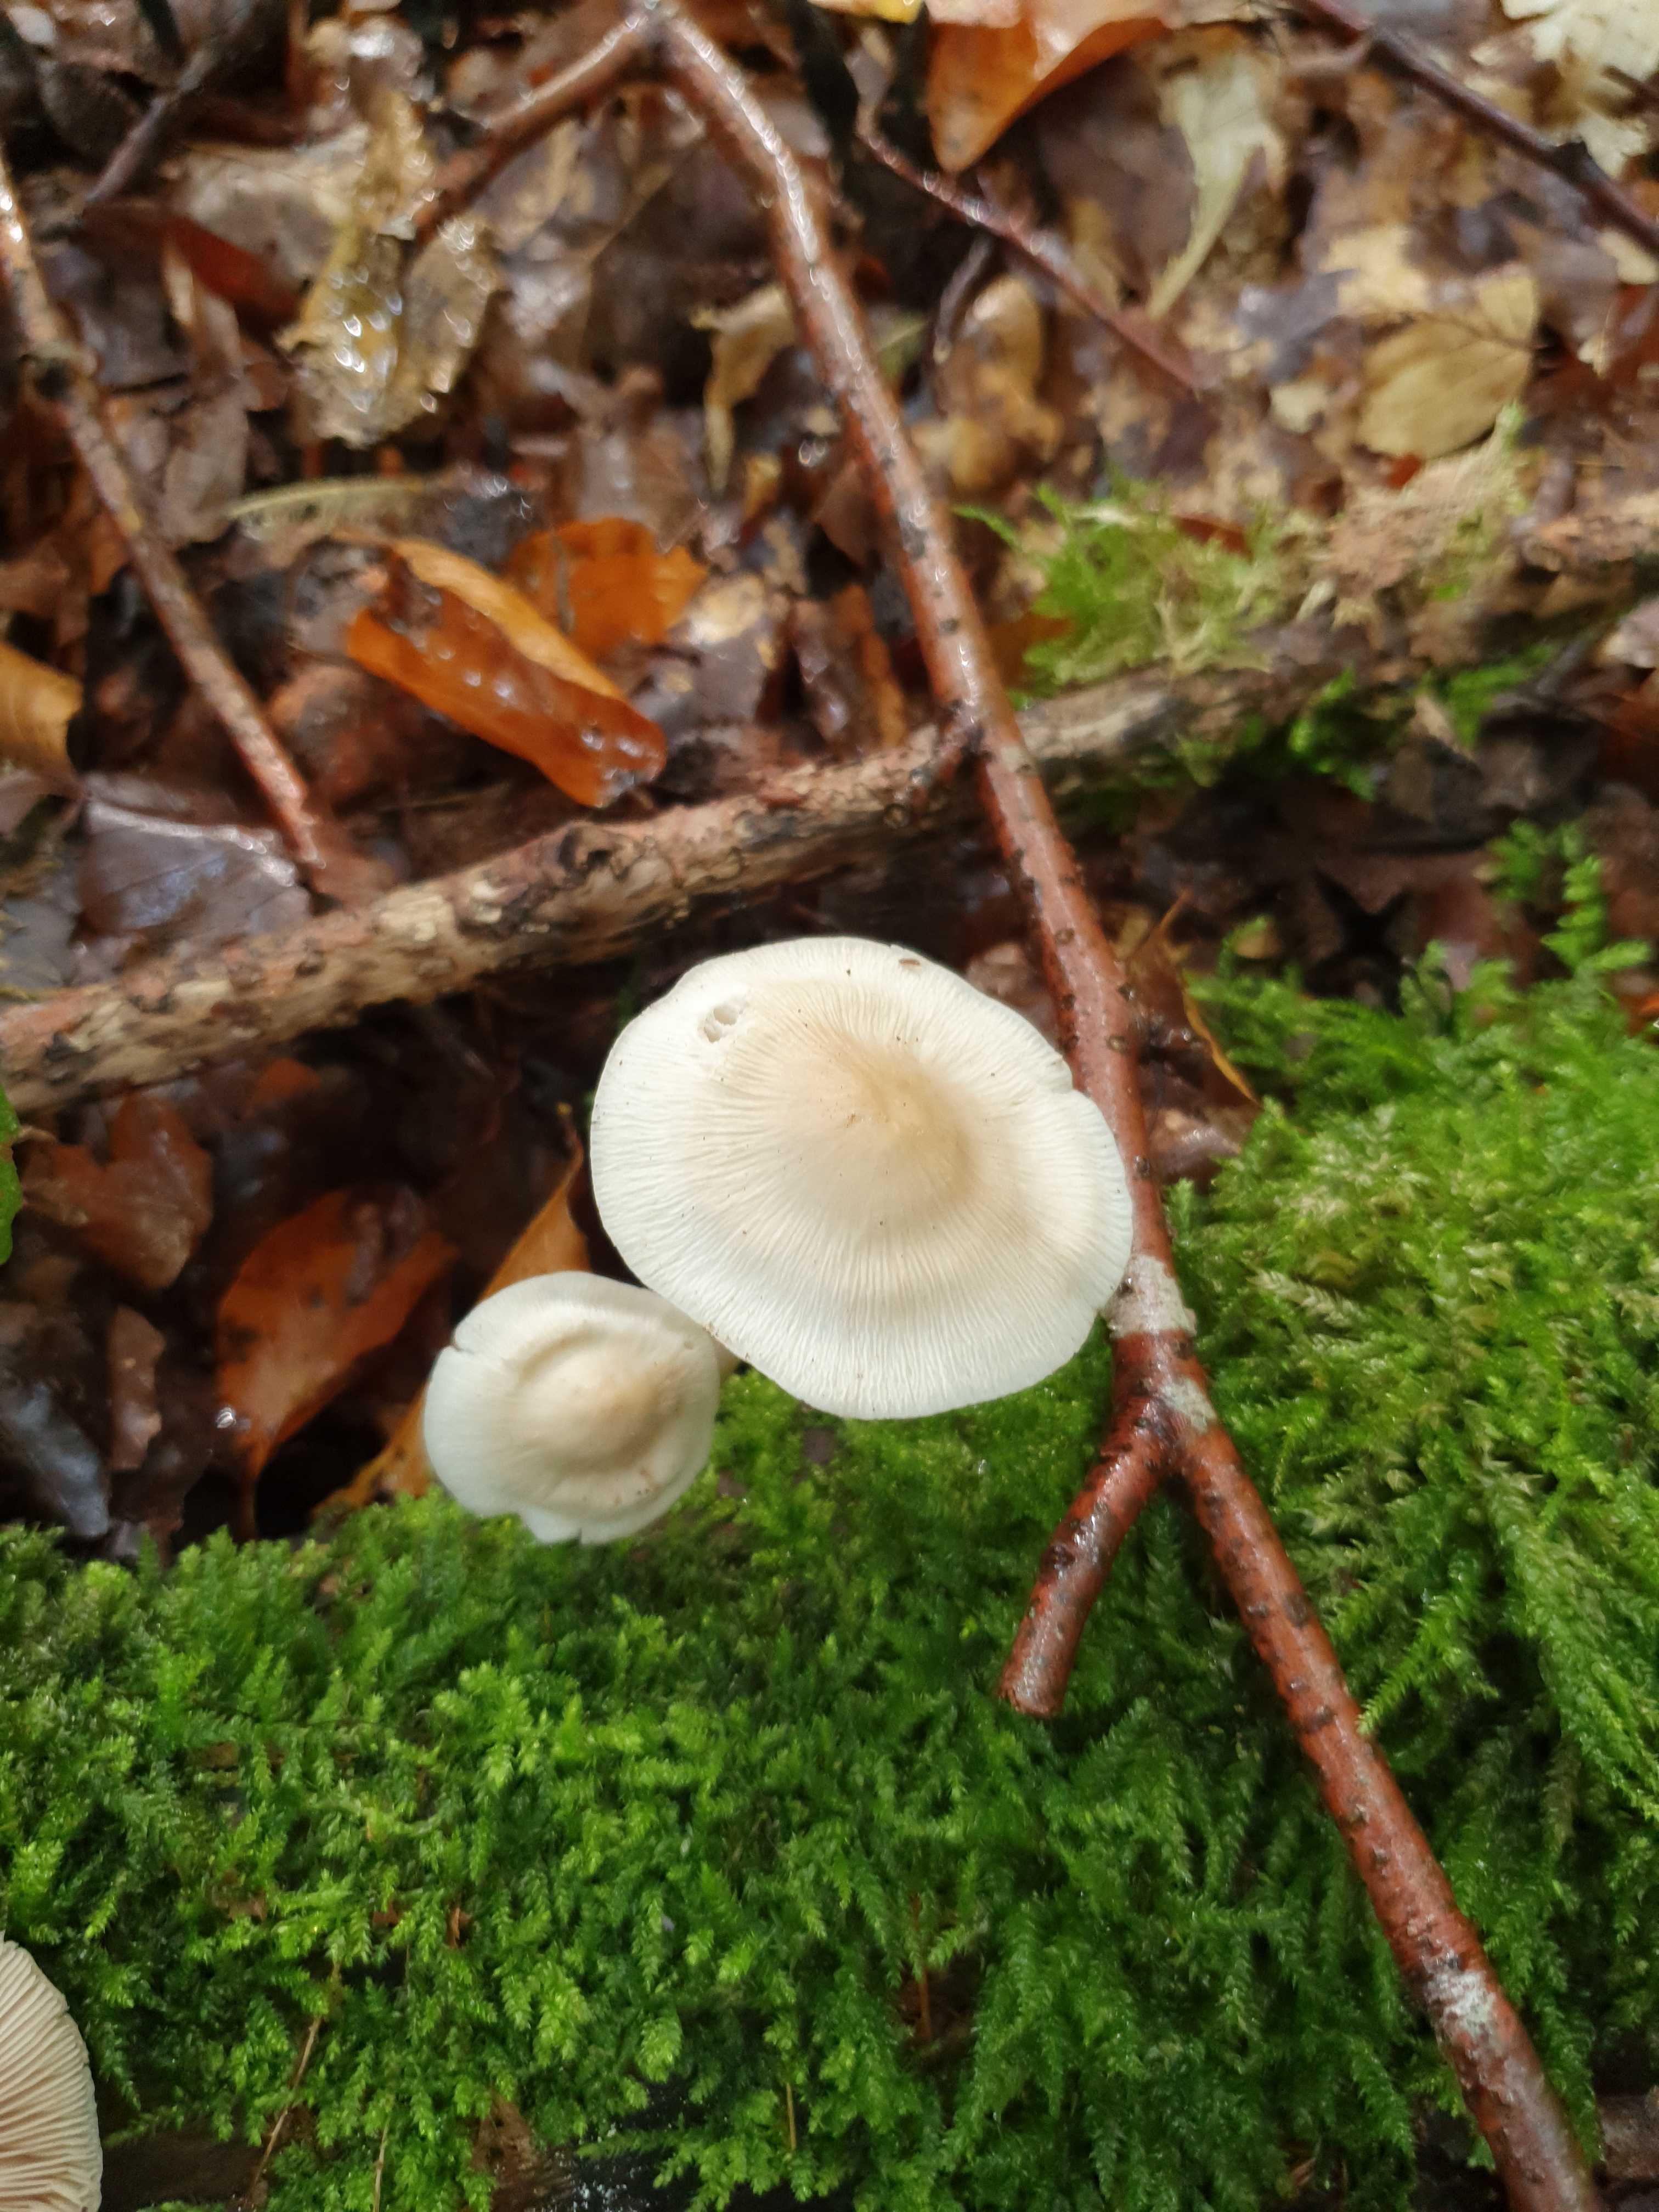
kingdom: Fungi
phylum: Basidiomycota
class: Agaricomycetes
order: Agaricales
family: Mycenaceae
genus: Mycena
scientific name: Mycena galericulata
